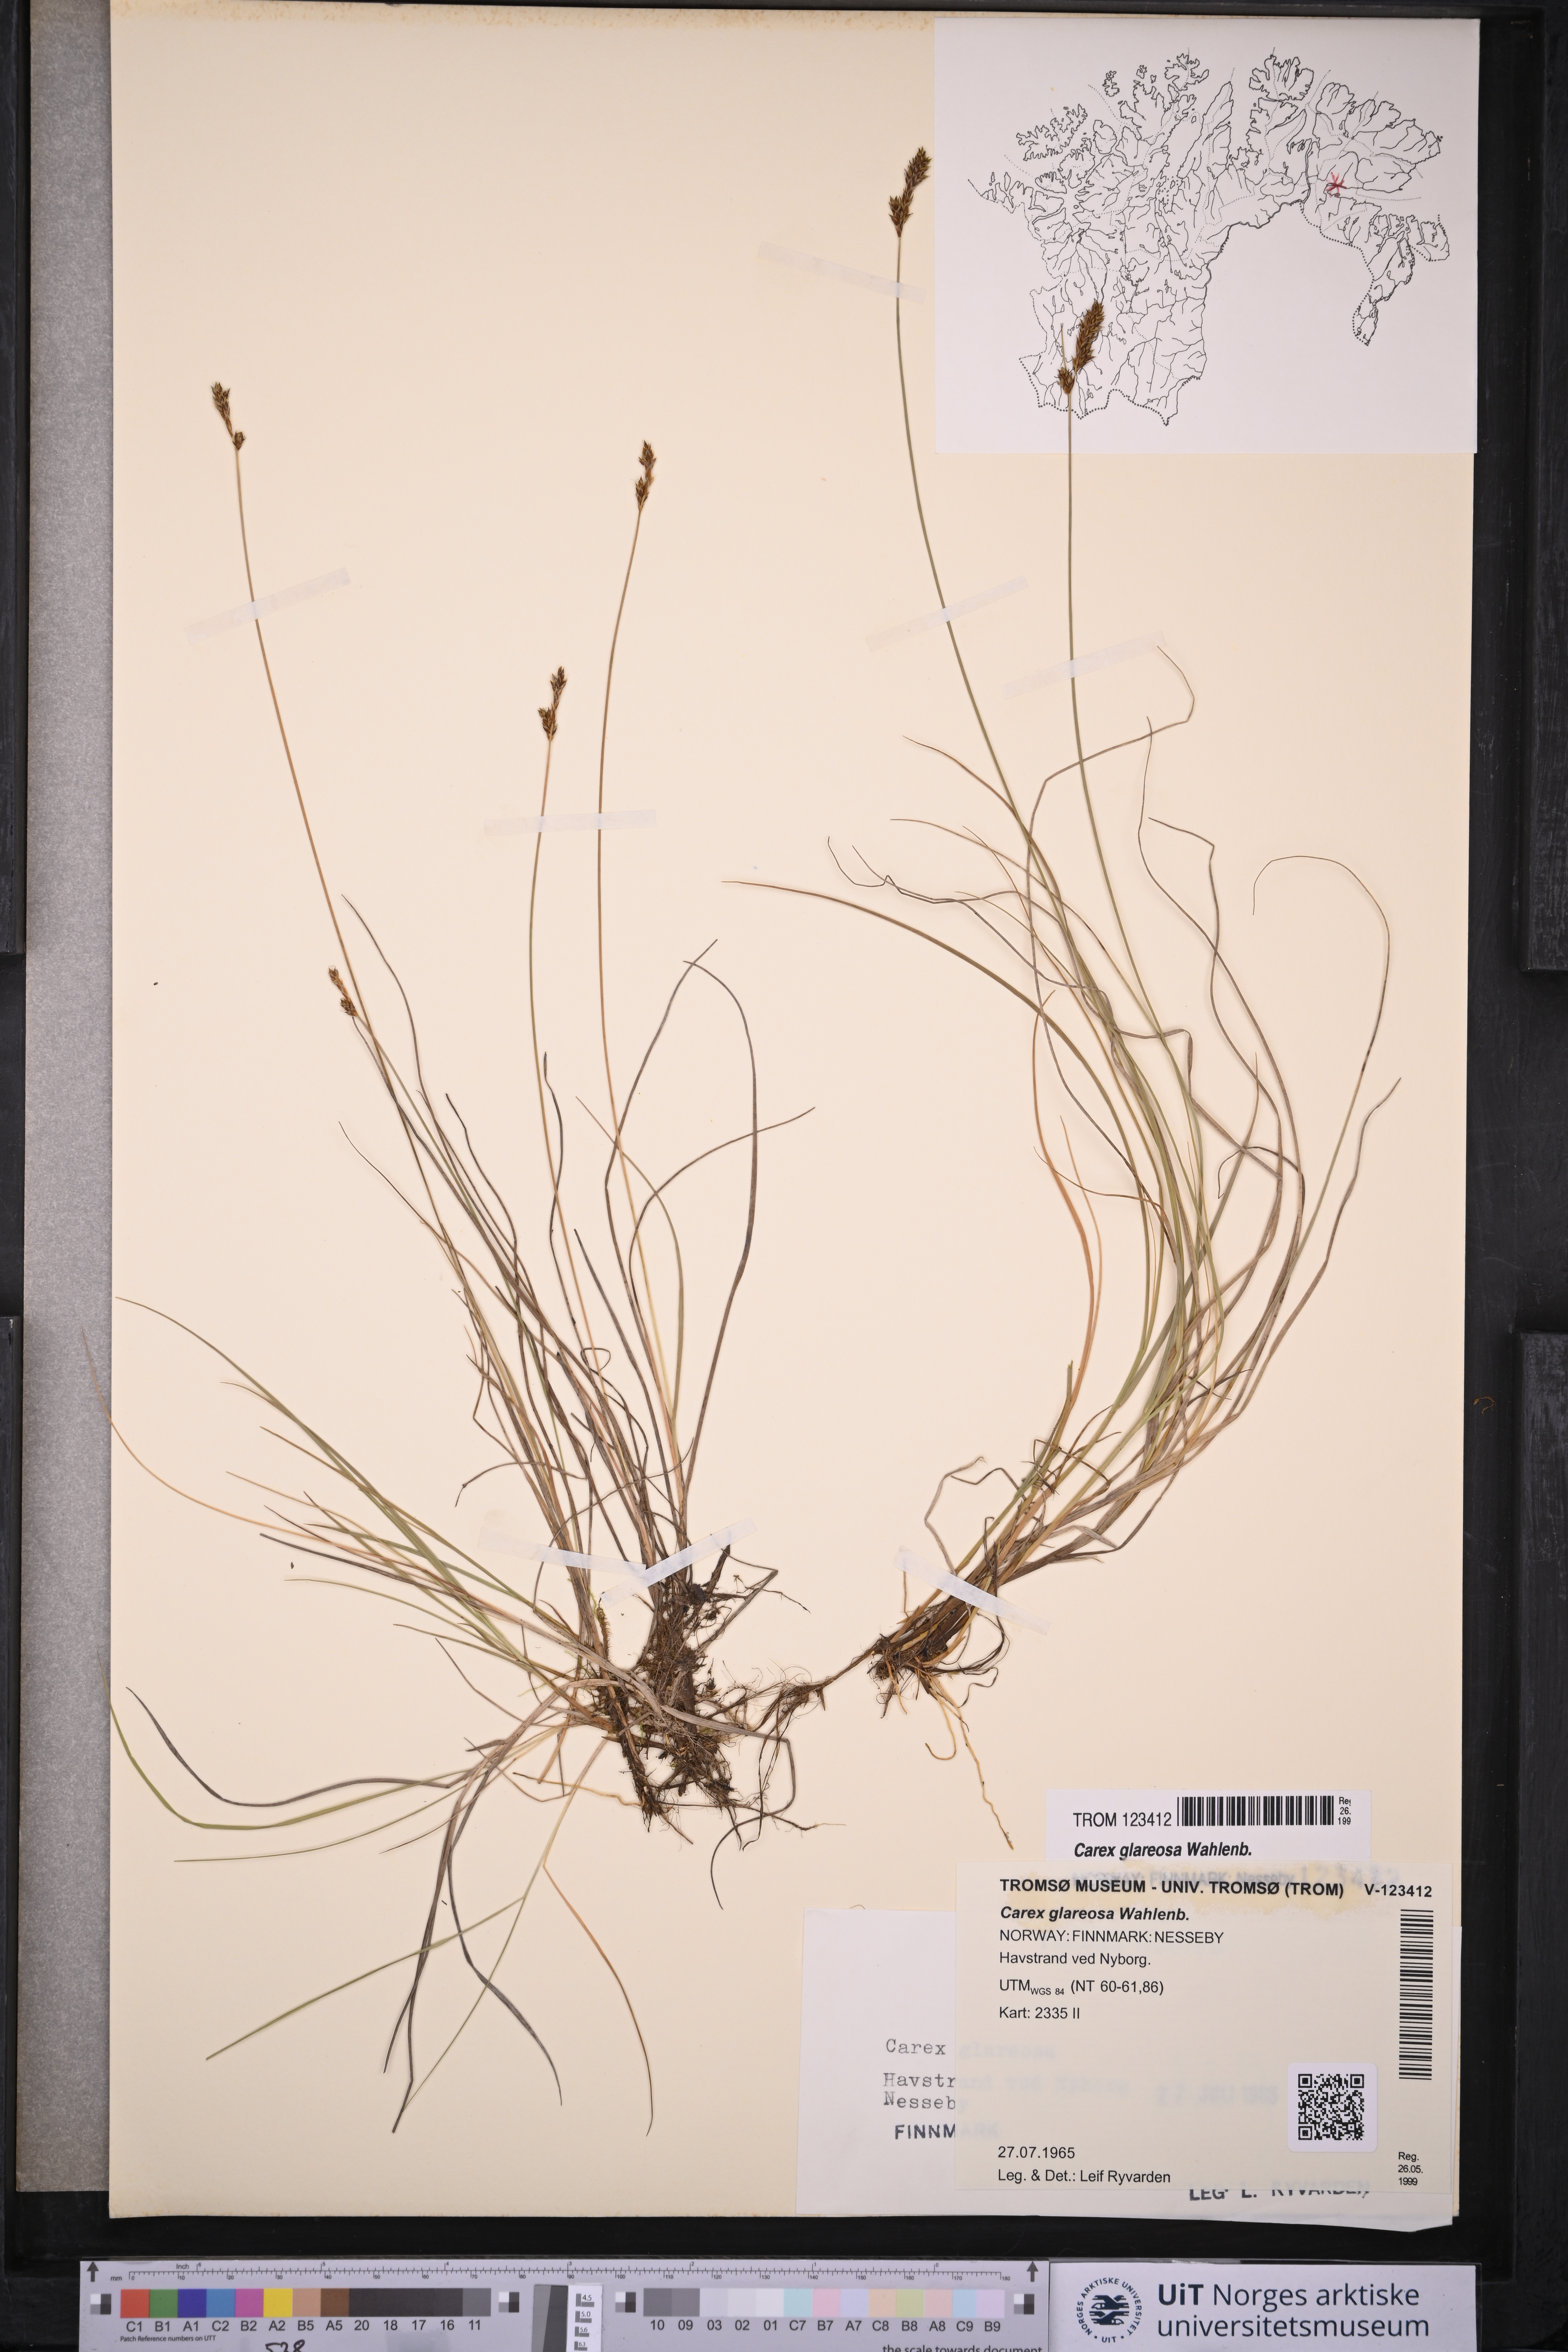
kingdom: Plantae
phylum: Tracheophyta
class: Liliopsida
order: Poales
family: Cyperaceae
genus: Carex
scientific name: Carex glareosa
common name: Clustered sedge
